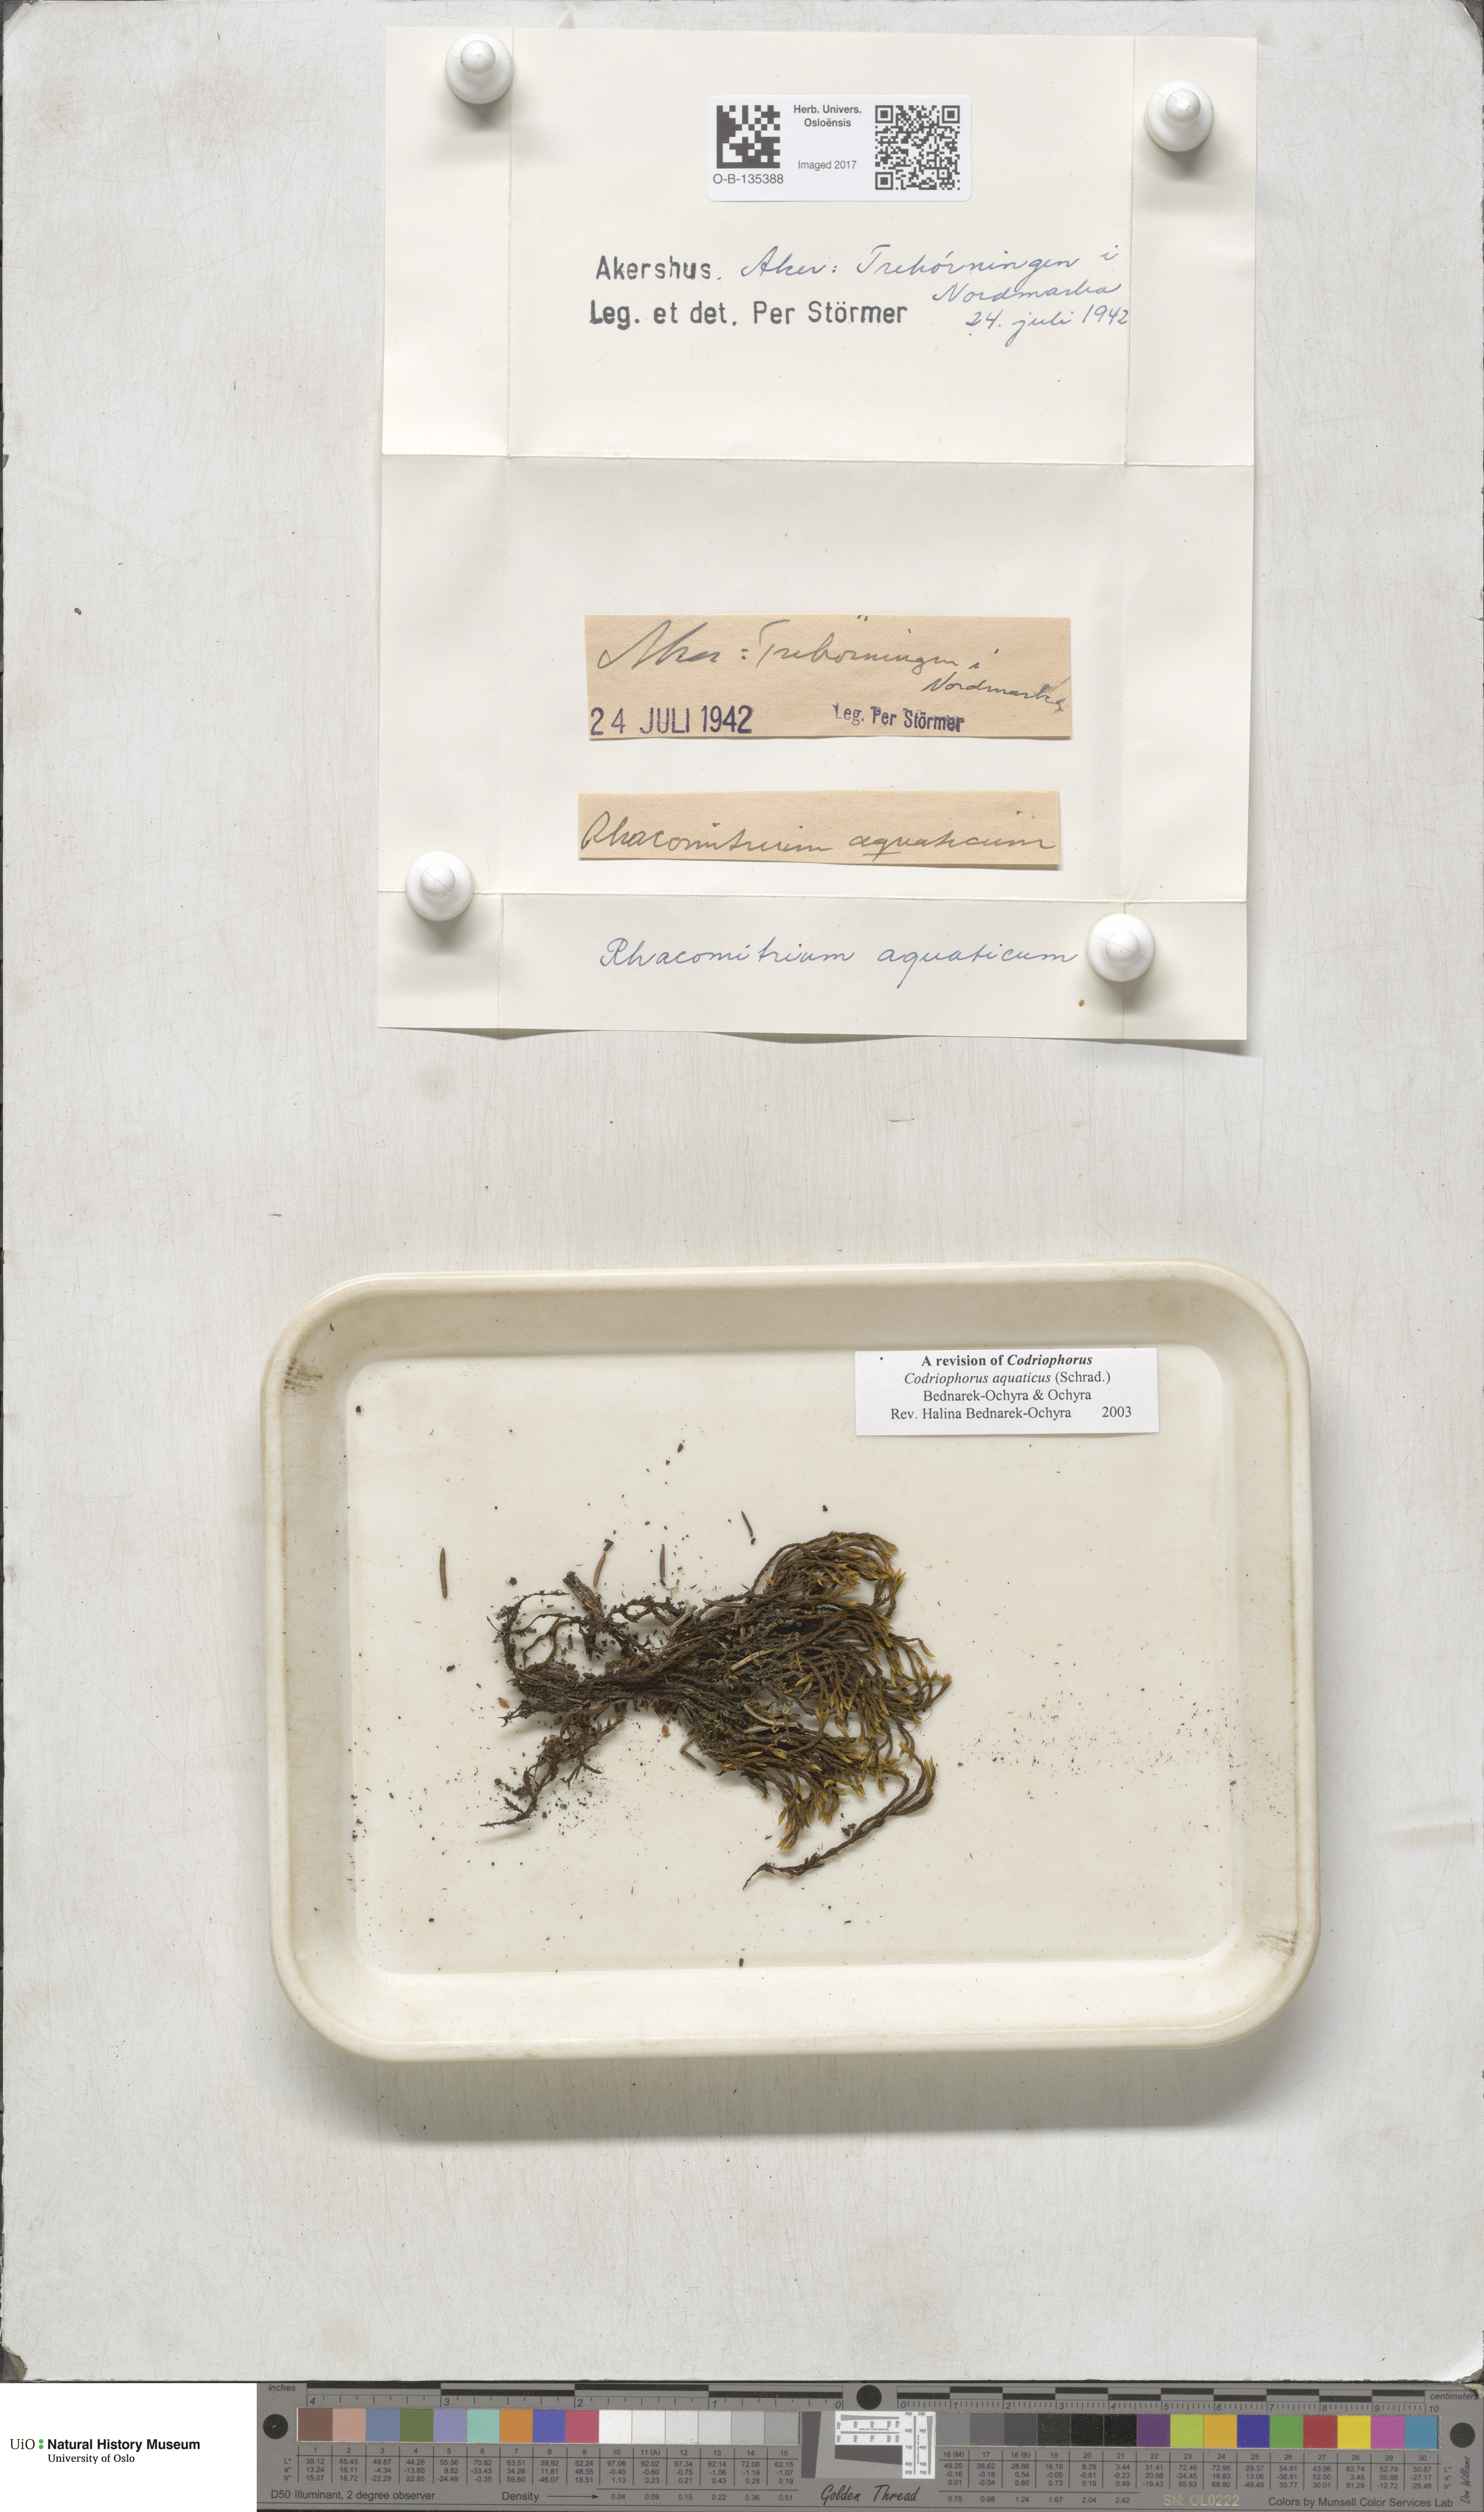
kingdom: Plantae
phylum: Bryophyta
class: Bryopsida
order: Grimmiales
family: Grimmiaceae
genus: Codriophorus
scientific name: Codriophorus aquaticus
